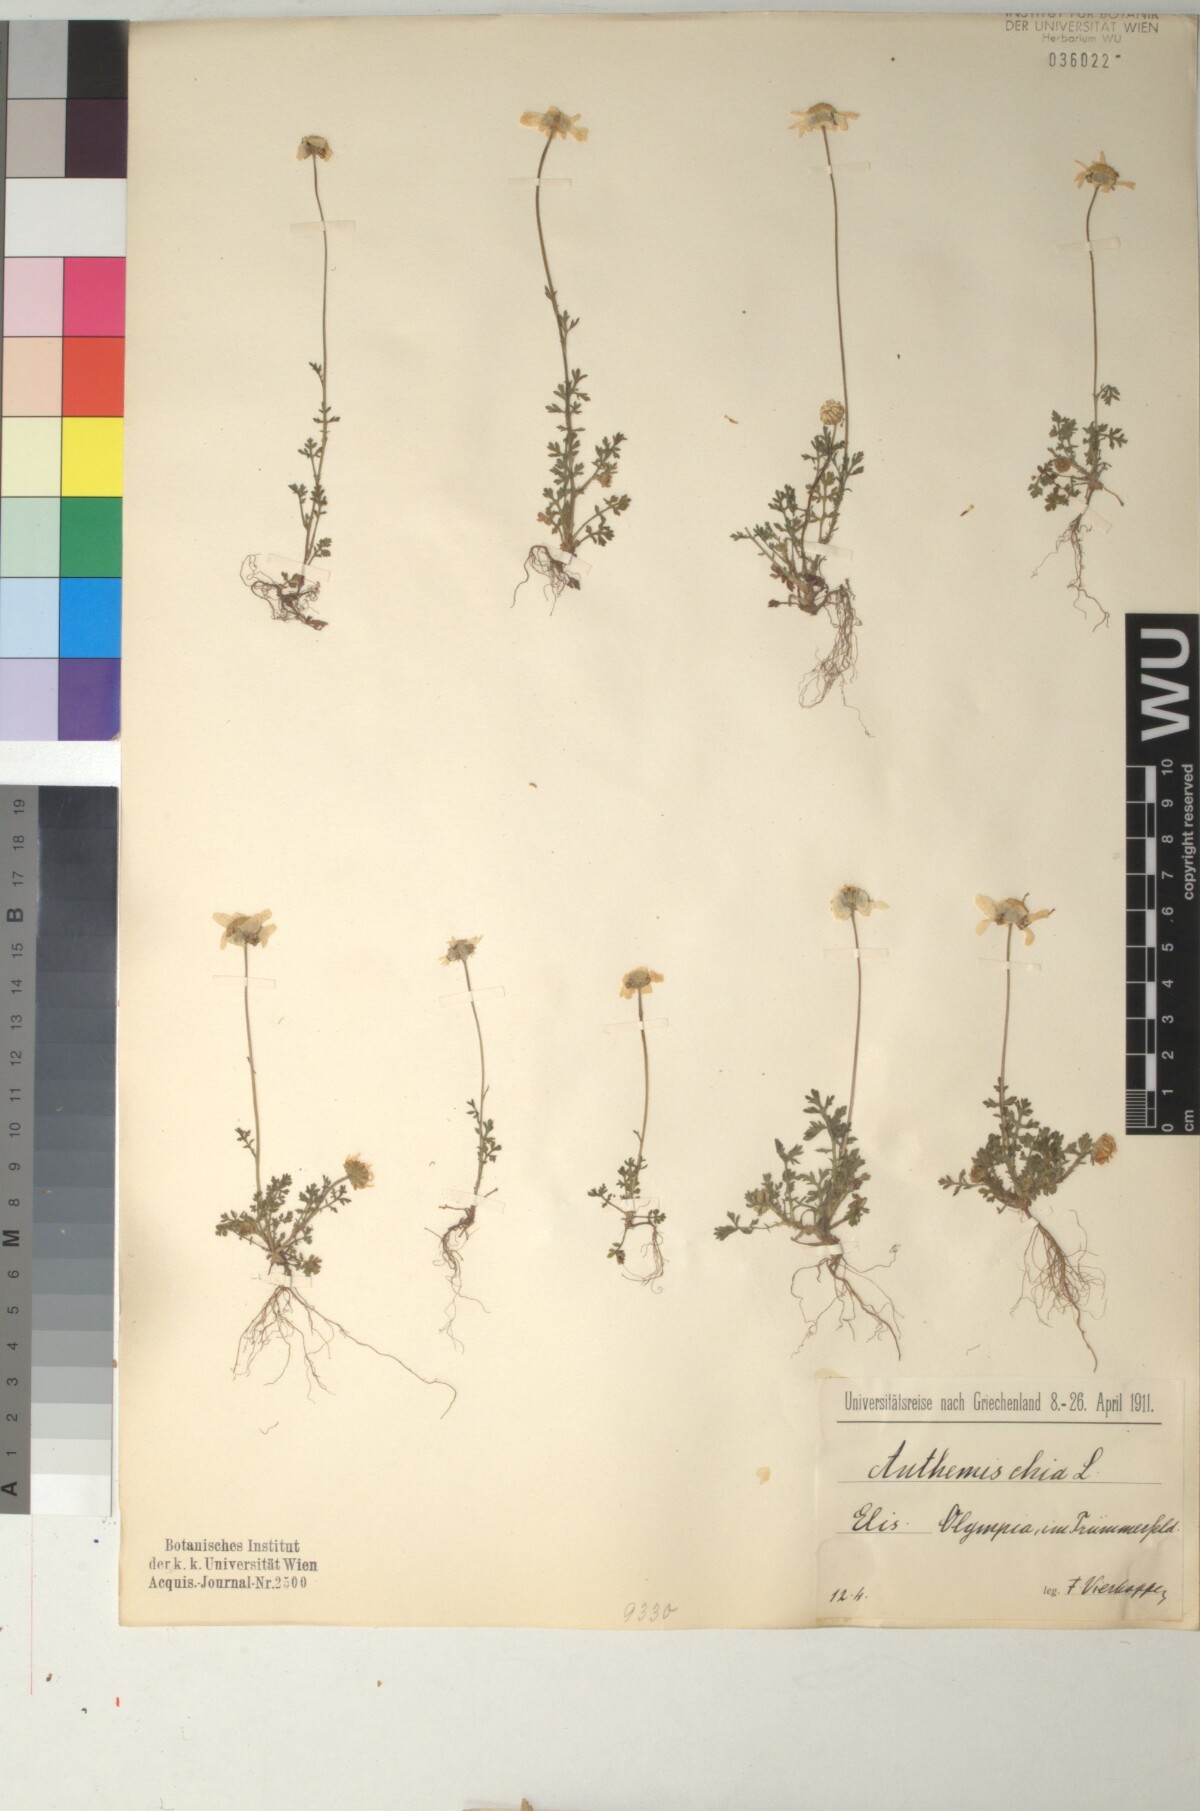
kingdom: Plantae
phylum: Tracheophyta
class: Magnoliopsida
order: Asterales
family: Asteraceae
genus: Anthemis
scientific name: Anthemis chia
